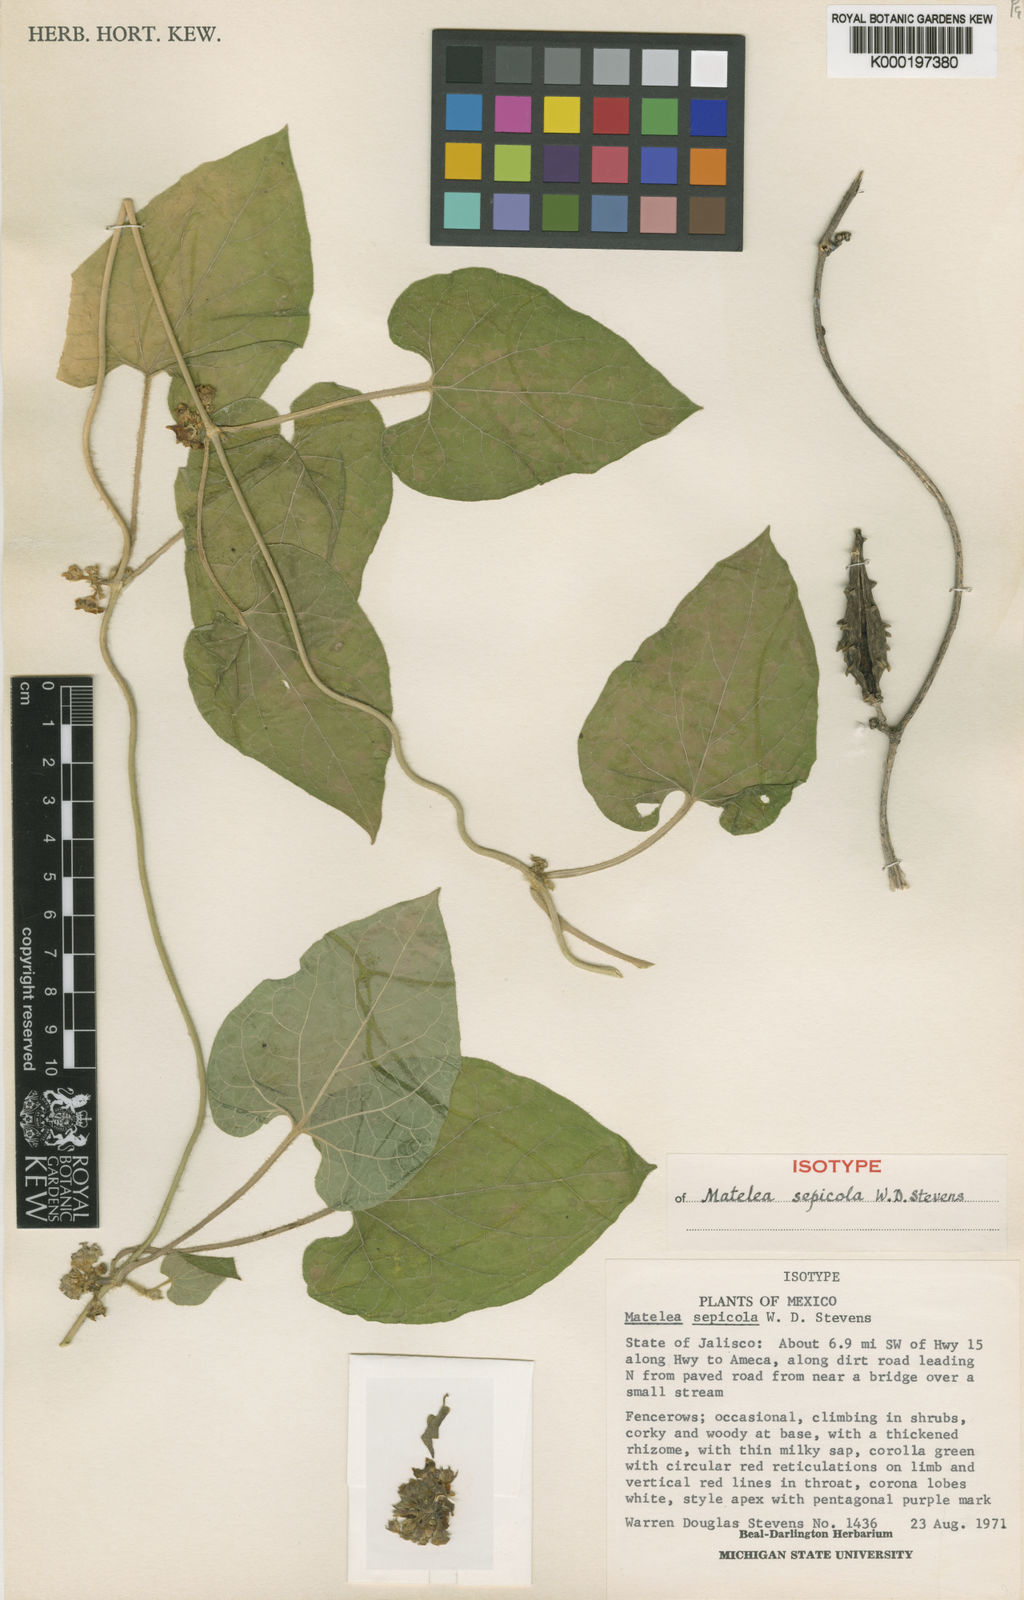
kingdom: Plantae
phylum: Tracheophyta
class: Magnoliopsida
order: Gentianales
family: Apocynaceae
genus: Dictyanthus
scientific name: Dictyanthus sepicola
